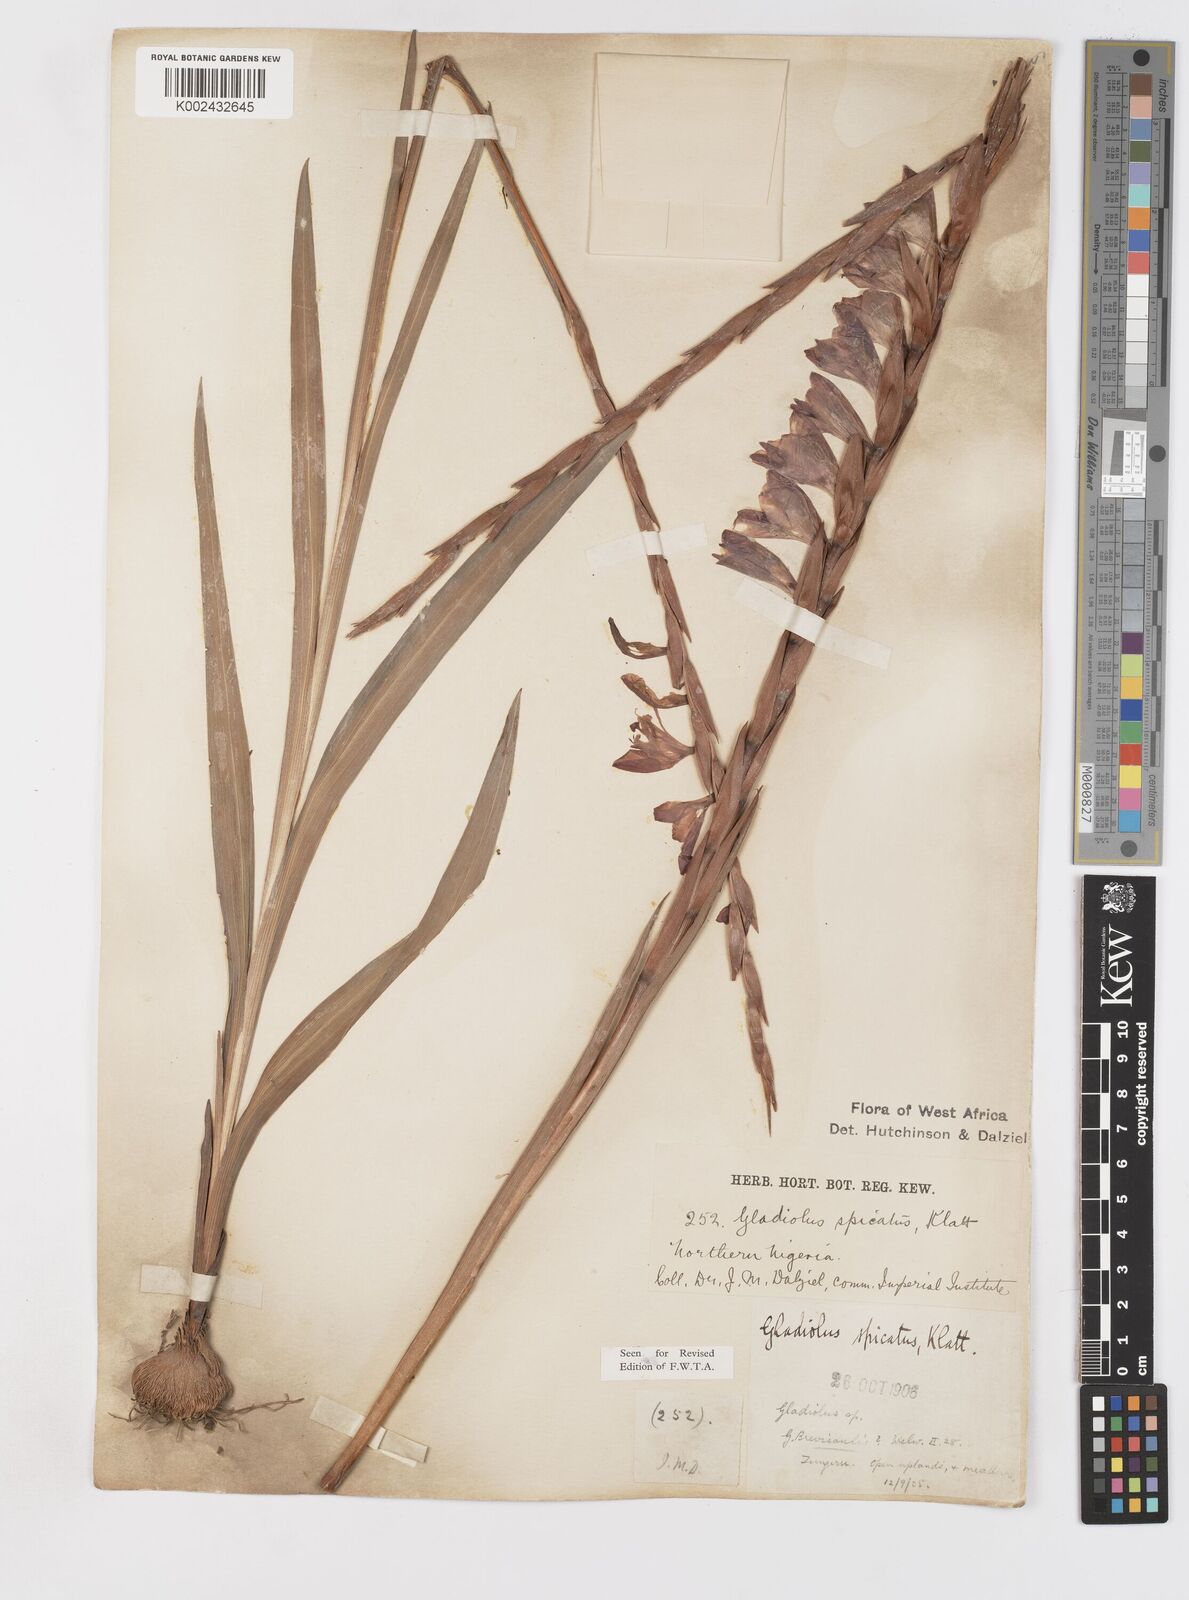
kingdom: Plantae
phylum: Tracheophyta
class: Liliopsida
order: Asparagales
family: Iridaceae
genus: Gladiolus
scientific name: Gladiolus gregarius
